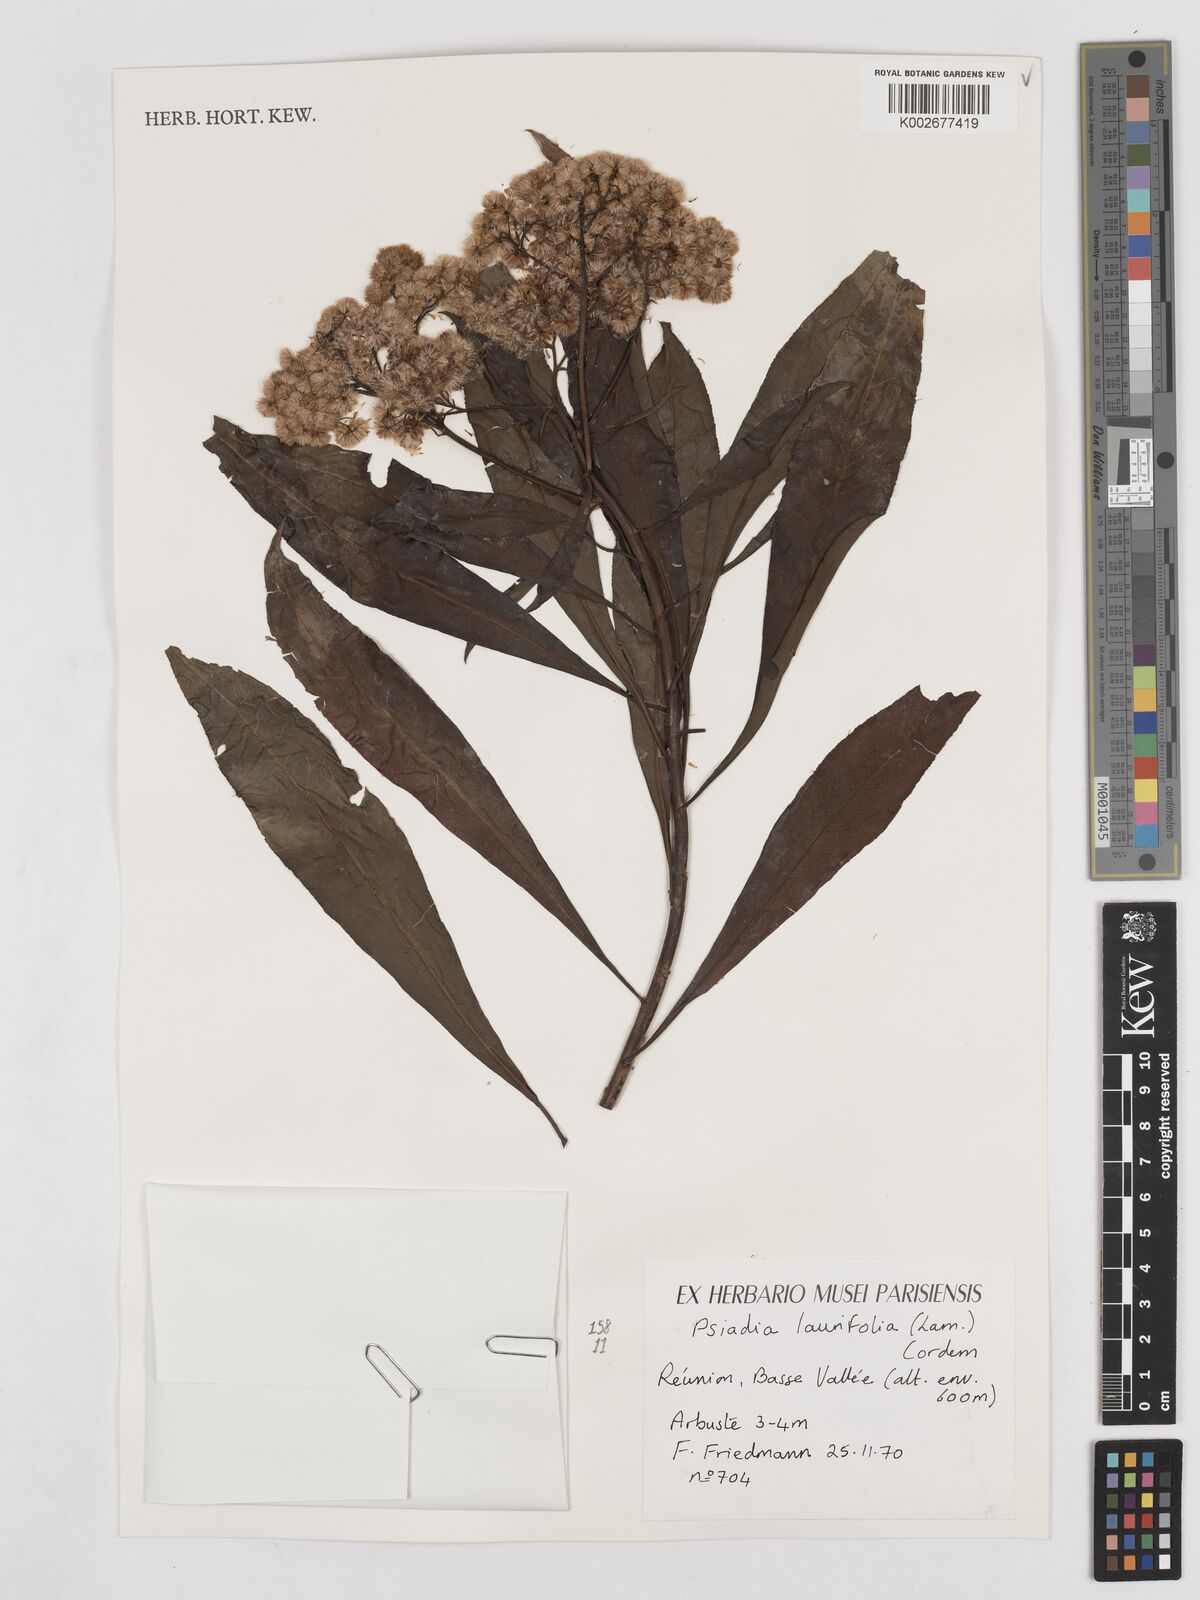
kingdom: Plantae
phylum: Tracheophyta
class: Magnoliopsida
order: Asterales
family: Asteraceae
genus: Psiadia
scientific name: Psiadia laurifolia
